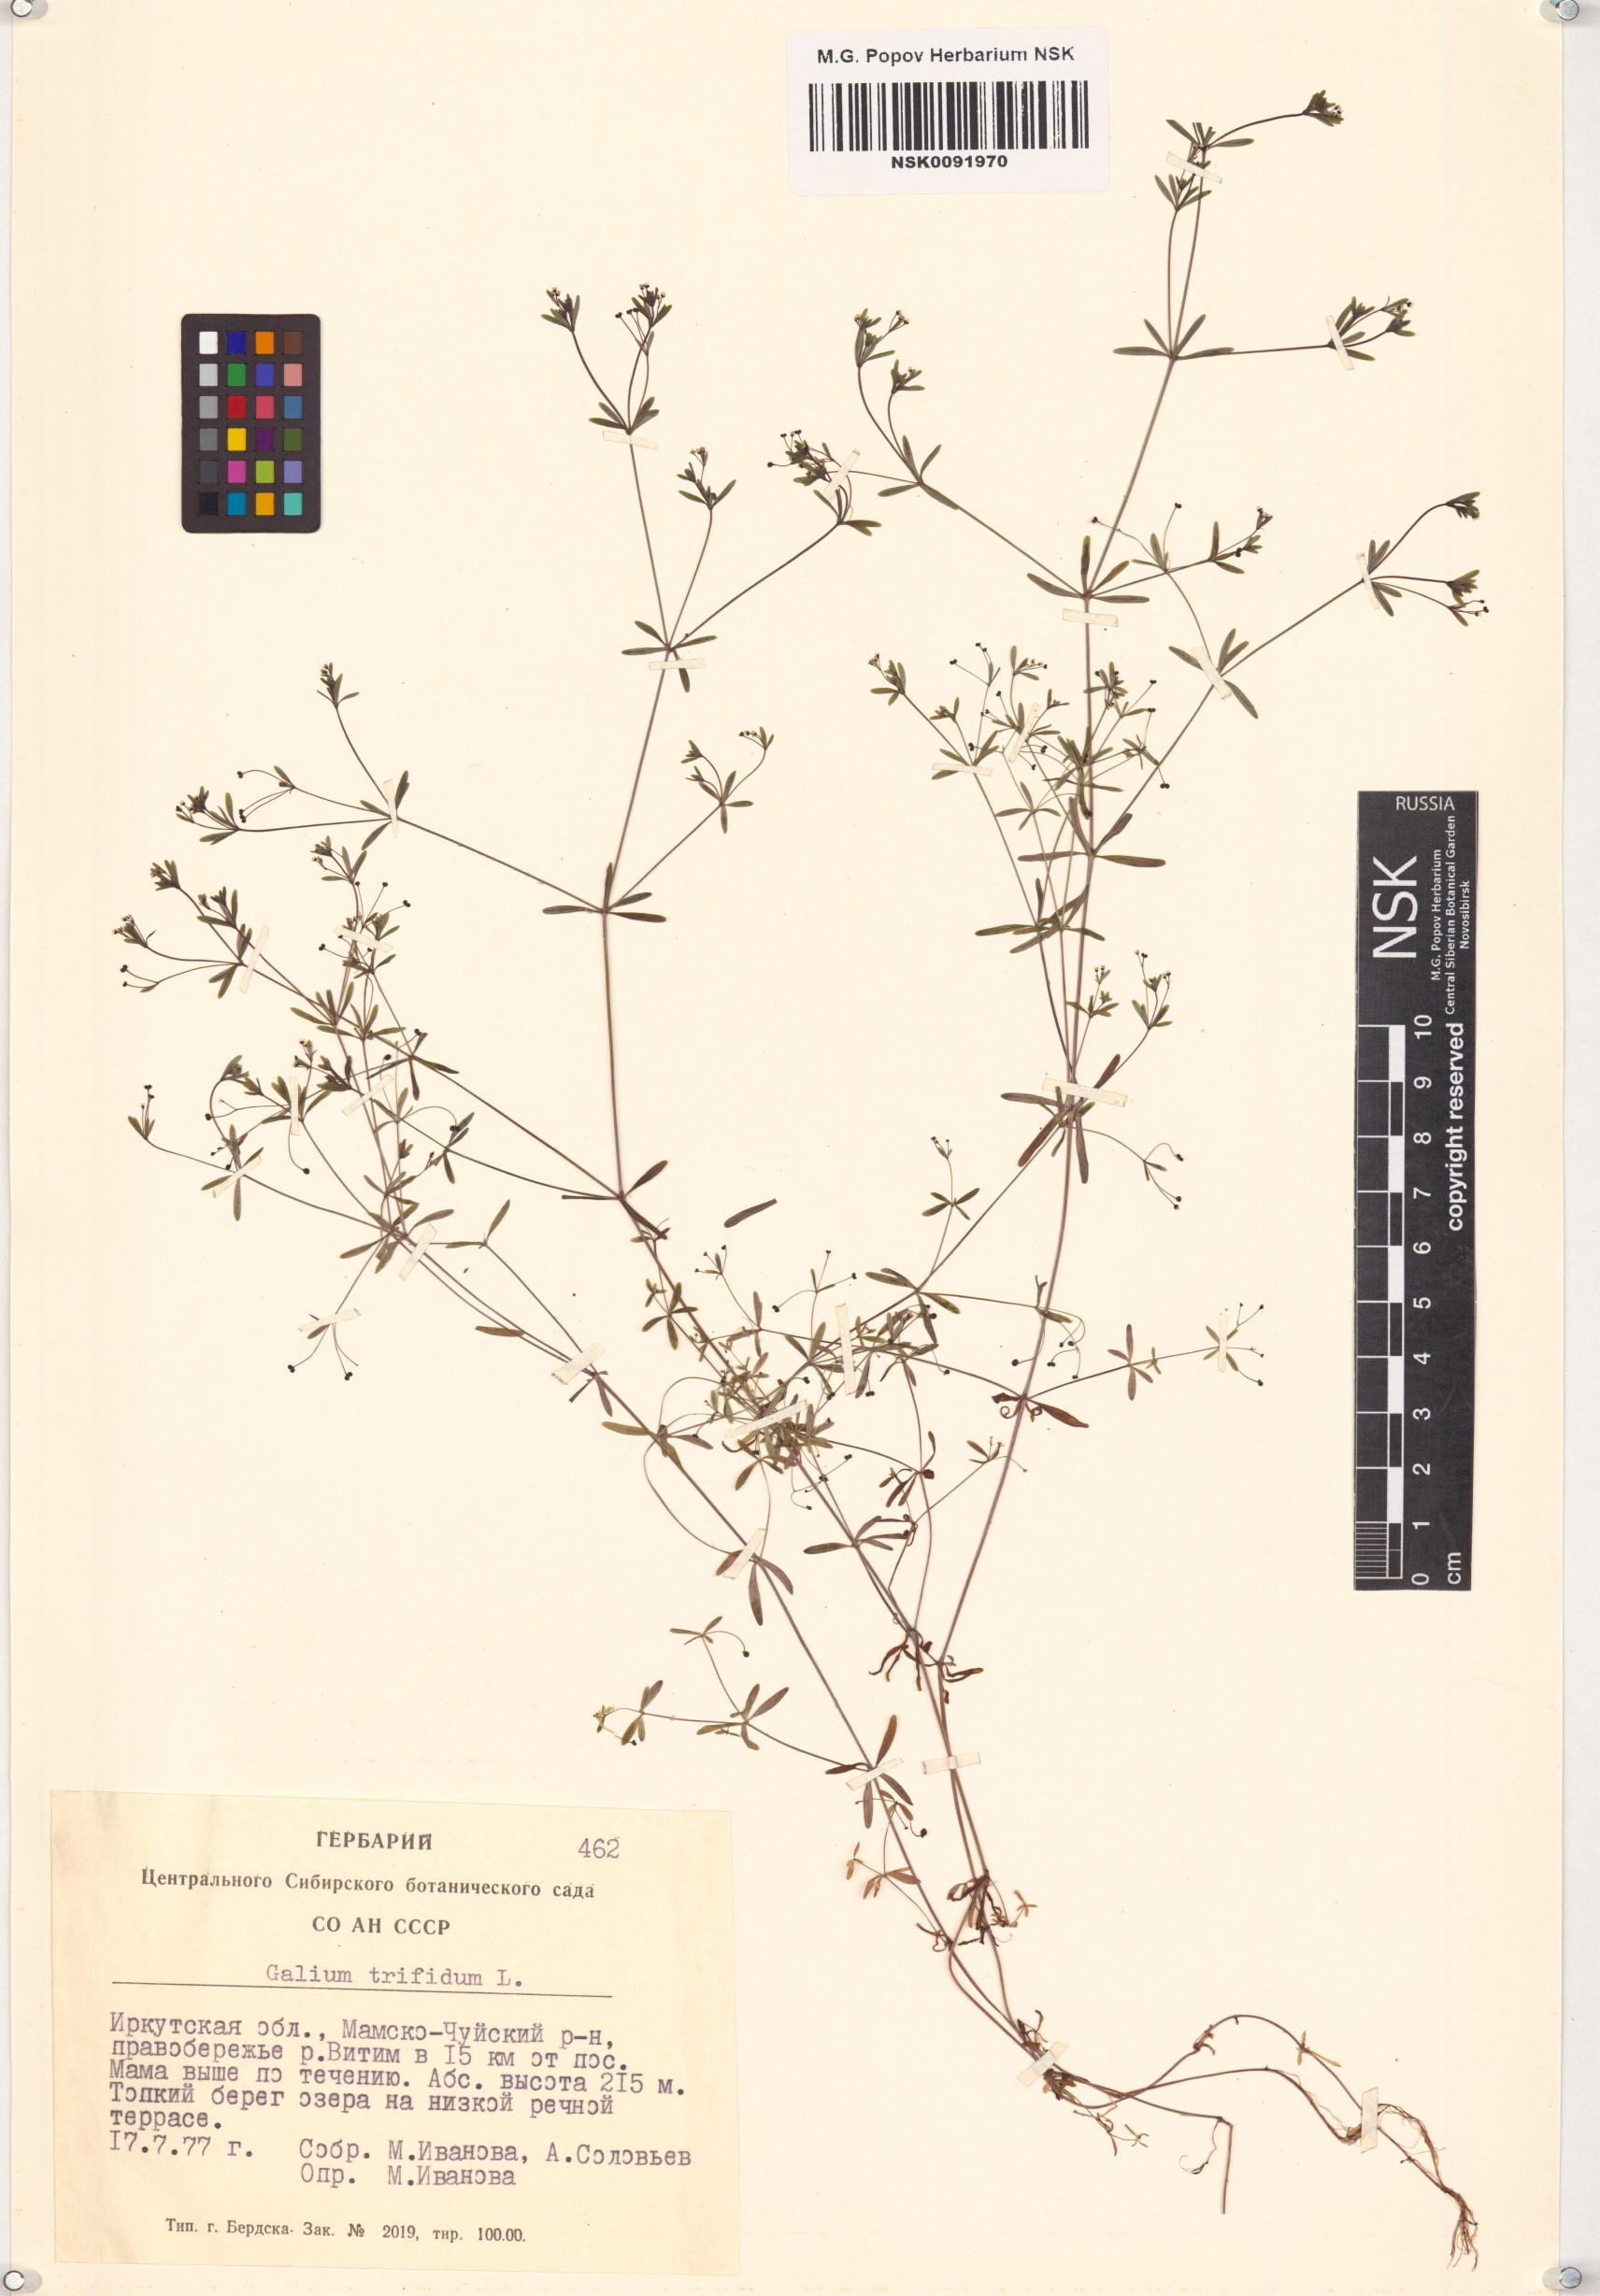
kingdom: Plantae
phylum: Tracheophyta
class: Magnoliopsida
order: Gentianales
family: Rubiaceae
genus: Galium
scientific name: Galium trifidum
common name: Small bedstraw
